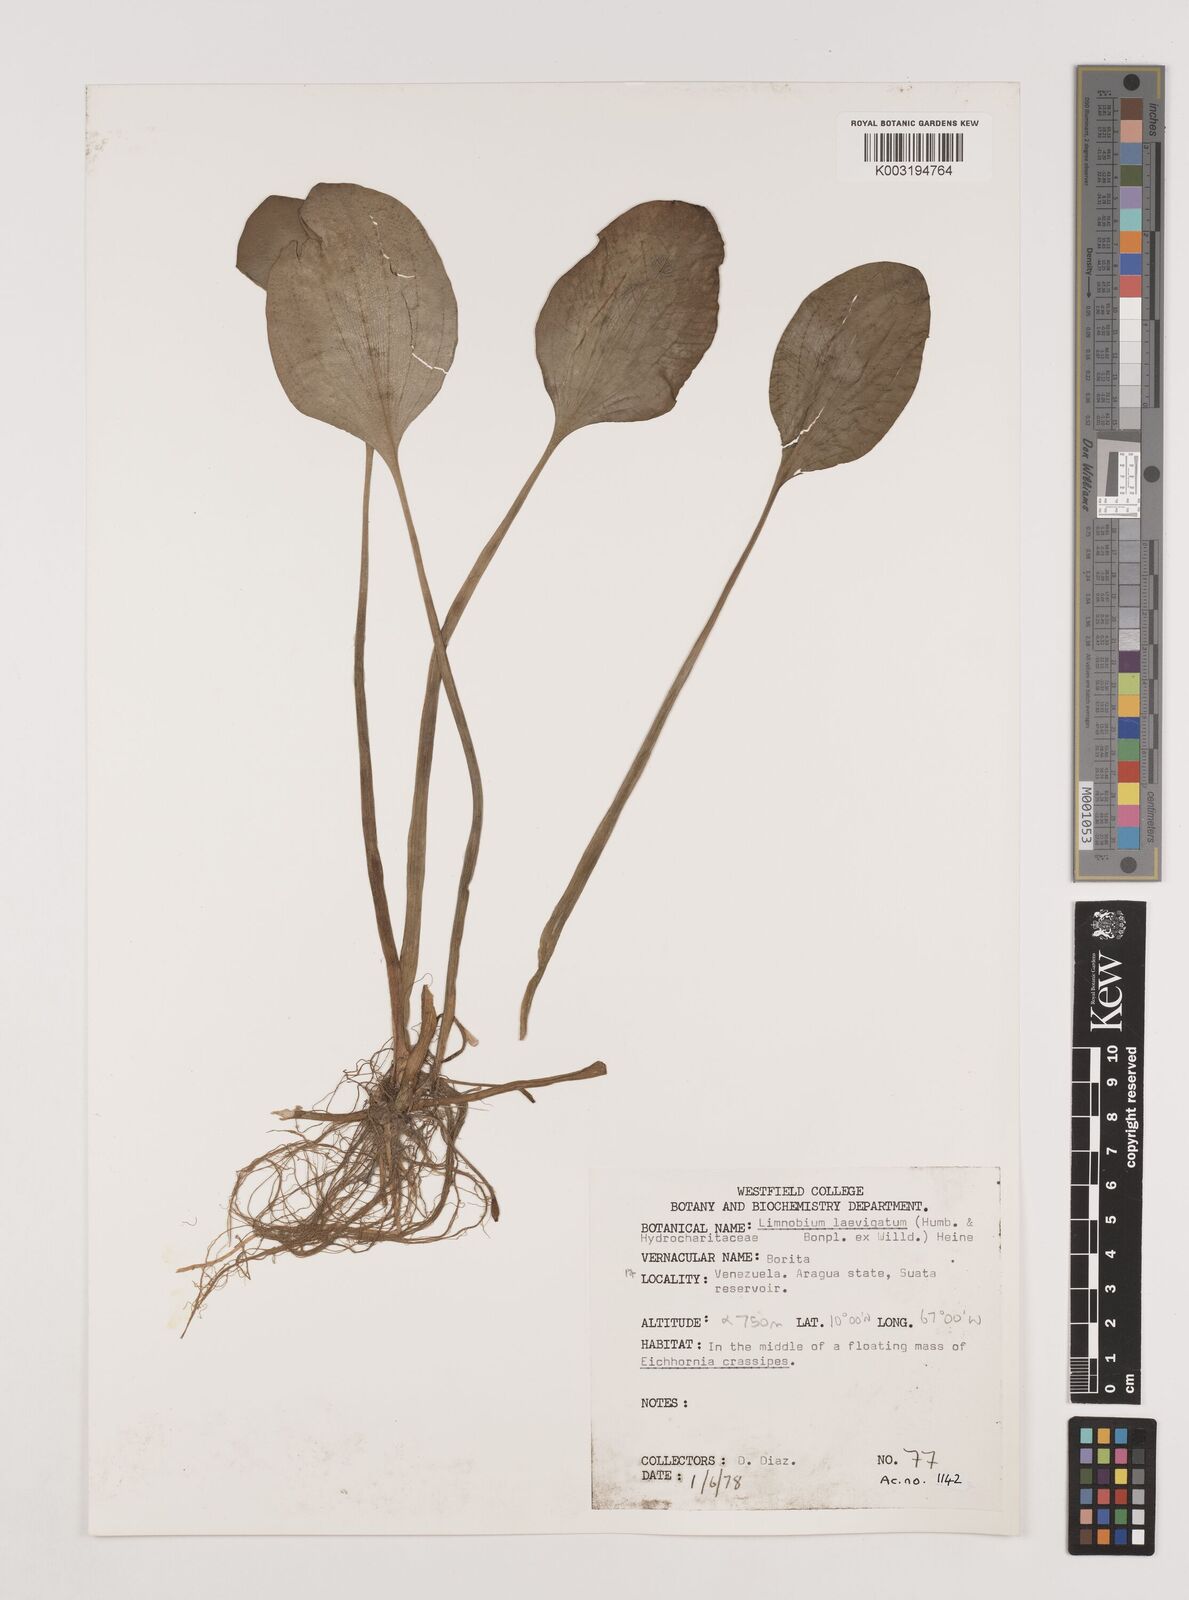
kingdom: Plantae
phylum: Tracheophyta
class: Liliopsida
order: Alismatales
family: Hydrocharitaceae
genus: Hydrocharis
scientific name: Hydrocharis laevigata
